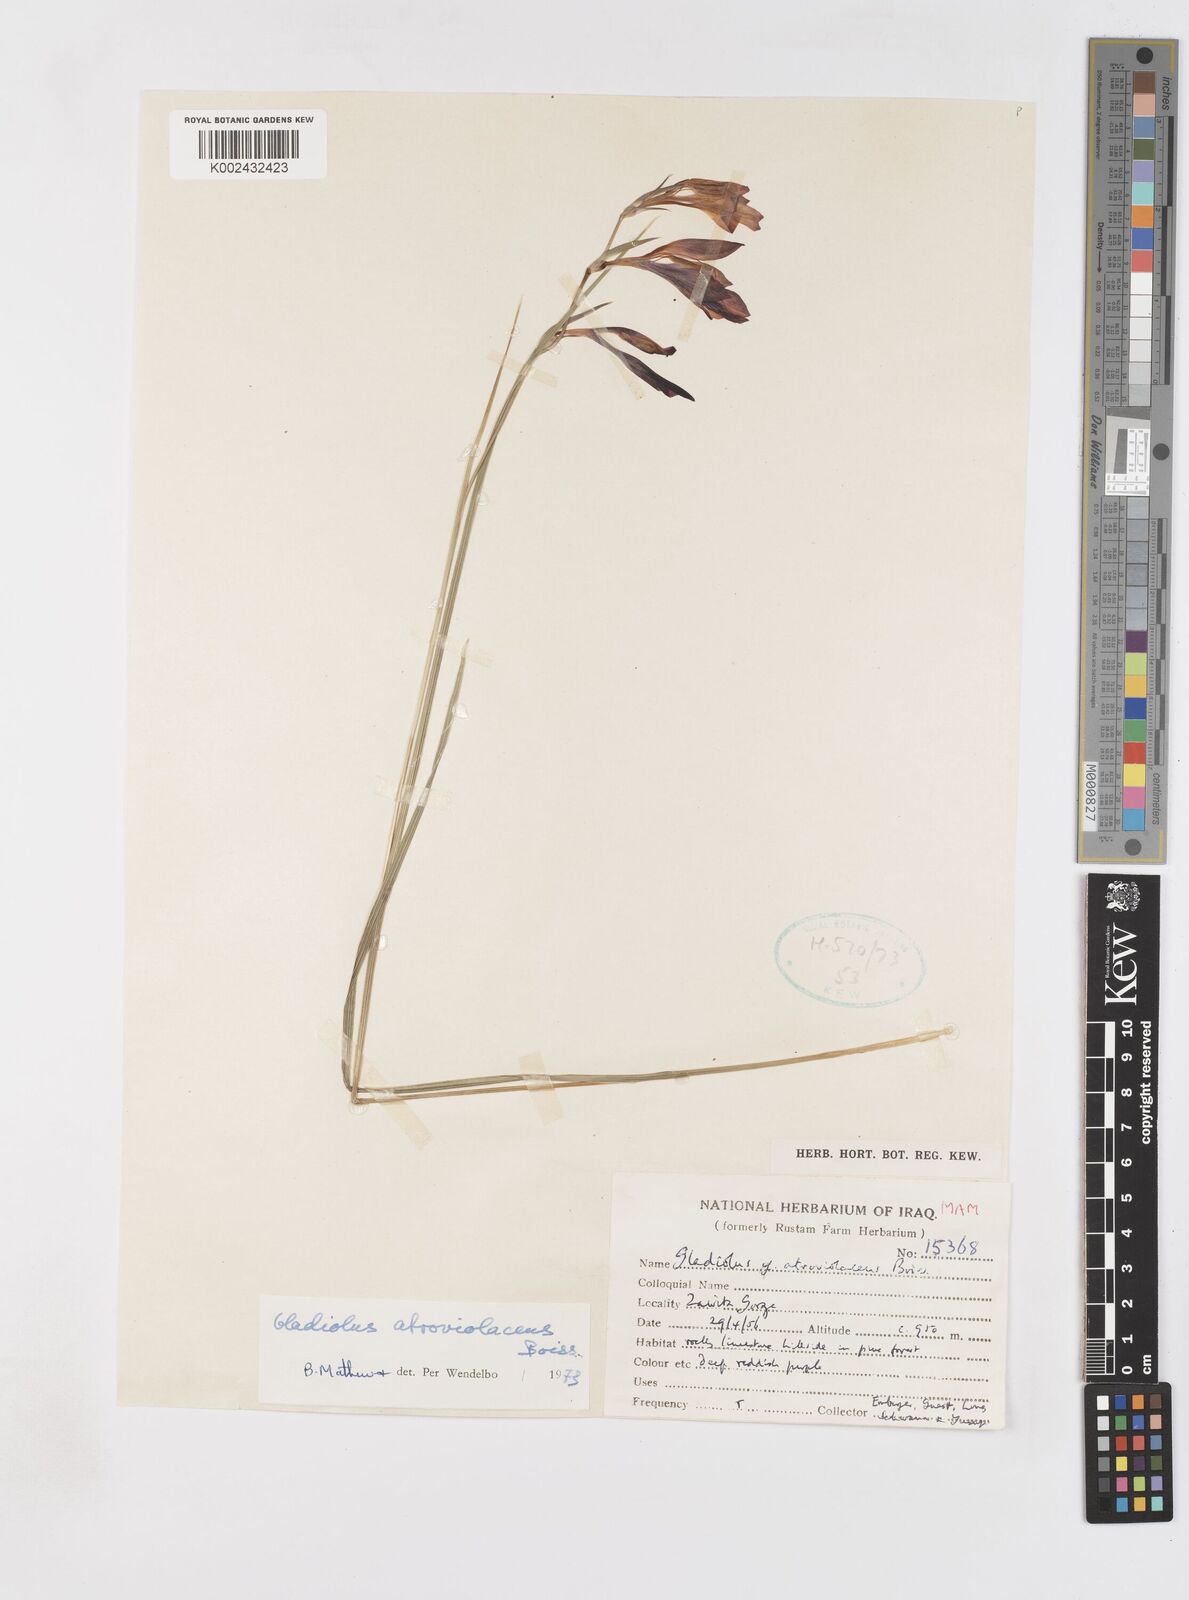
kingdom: Plantae
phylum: Tracheophyta
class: Liliopsida
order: Asparagales
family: Iridaceae
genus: Gladiolus
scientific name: Gladiolus atroviolaceus
